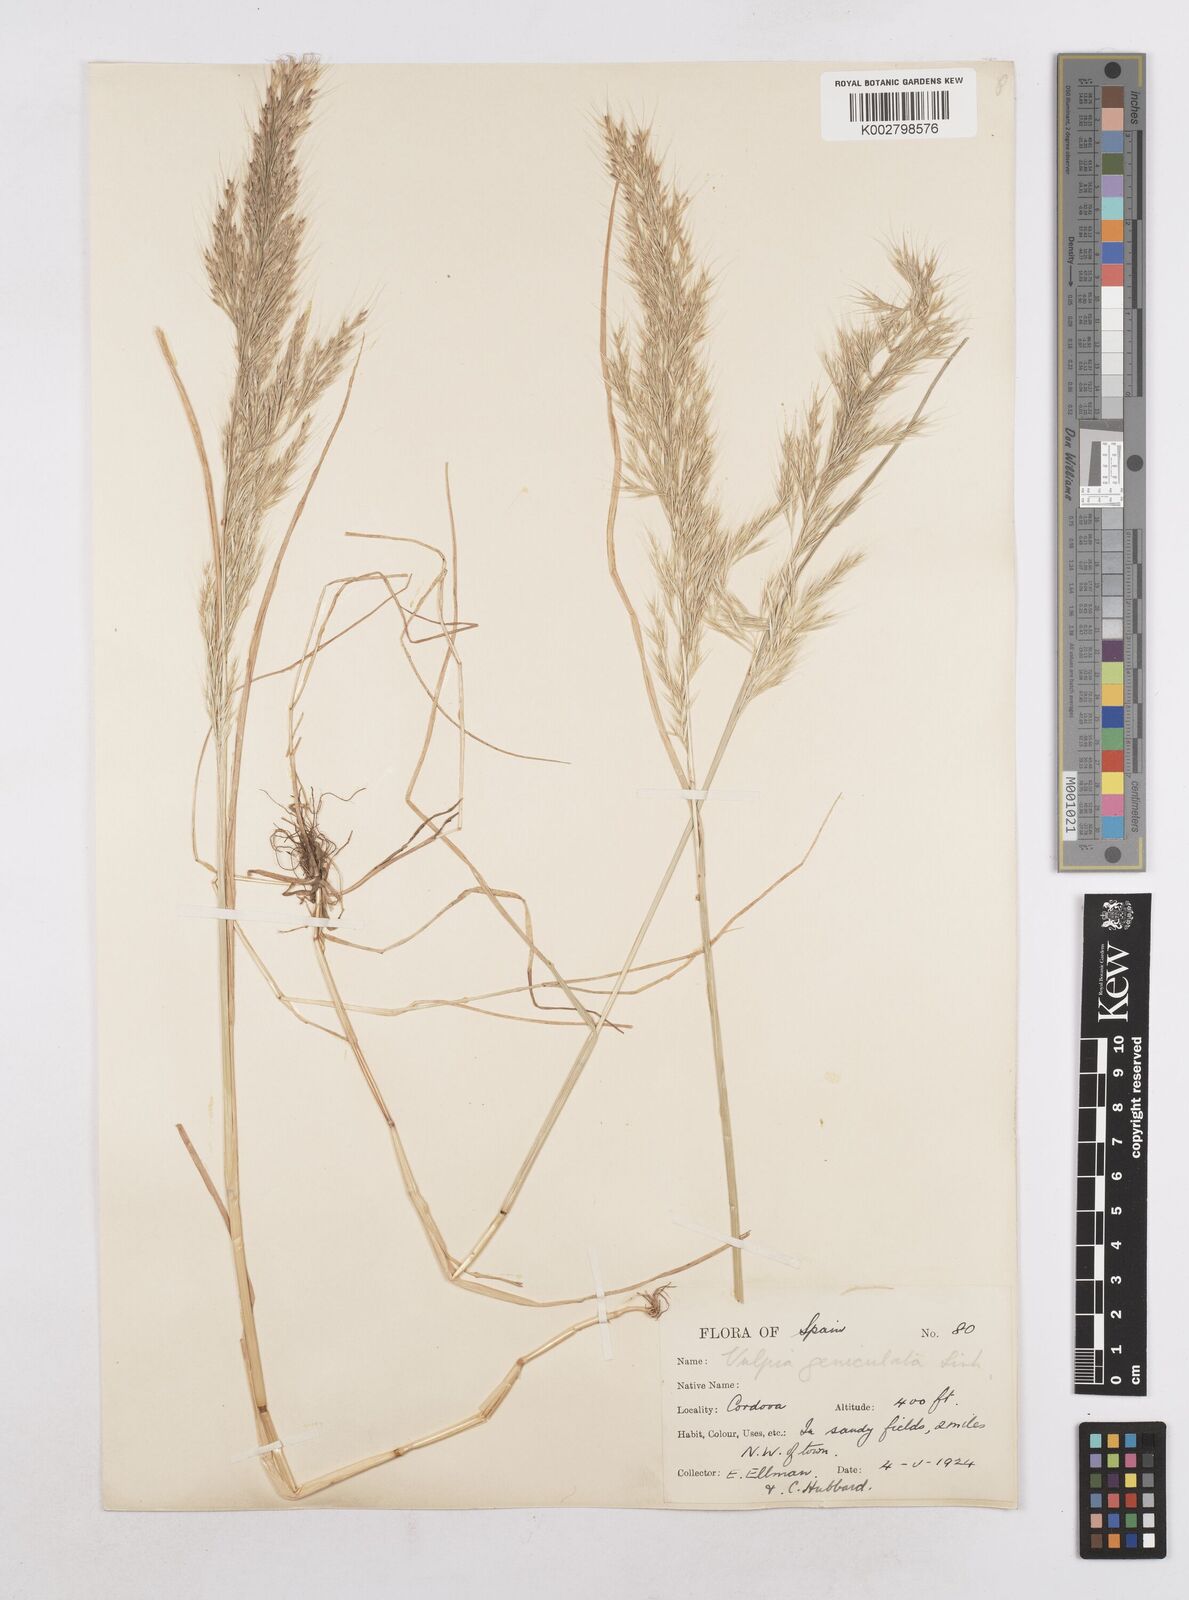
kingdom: Plantae
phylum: Tracheophyta
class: Liliopsida
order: Poales
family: Poaceae
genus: Festuca
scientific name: Festuca geniculata
